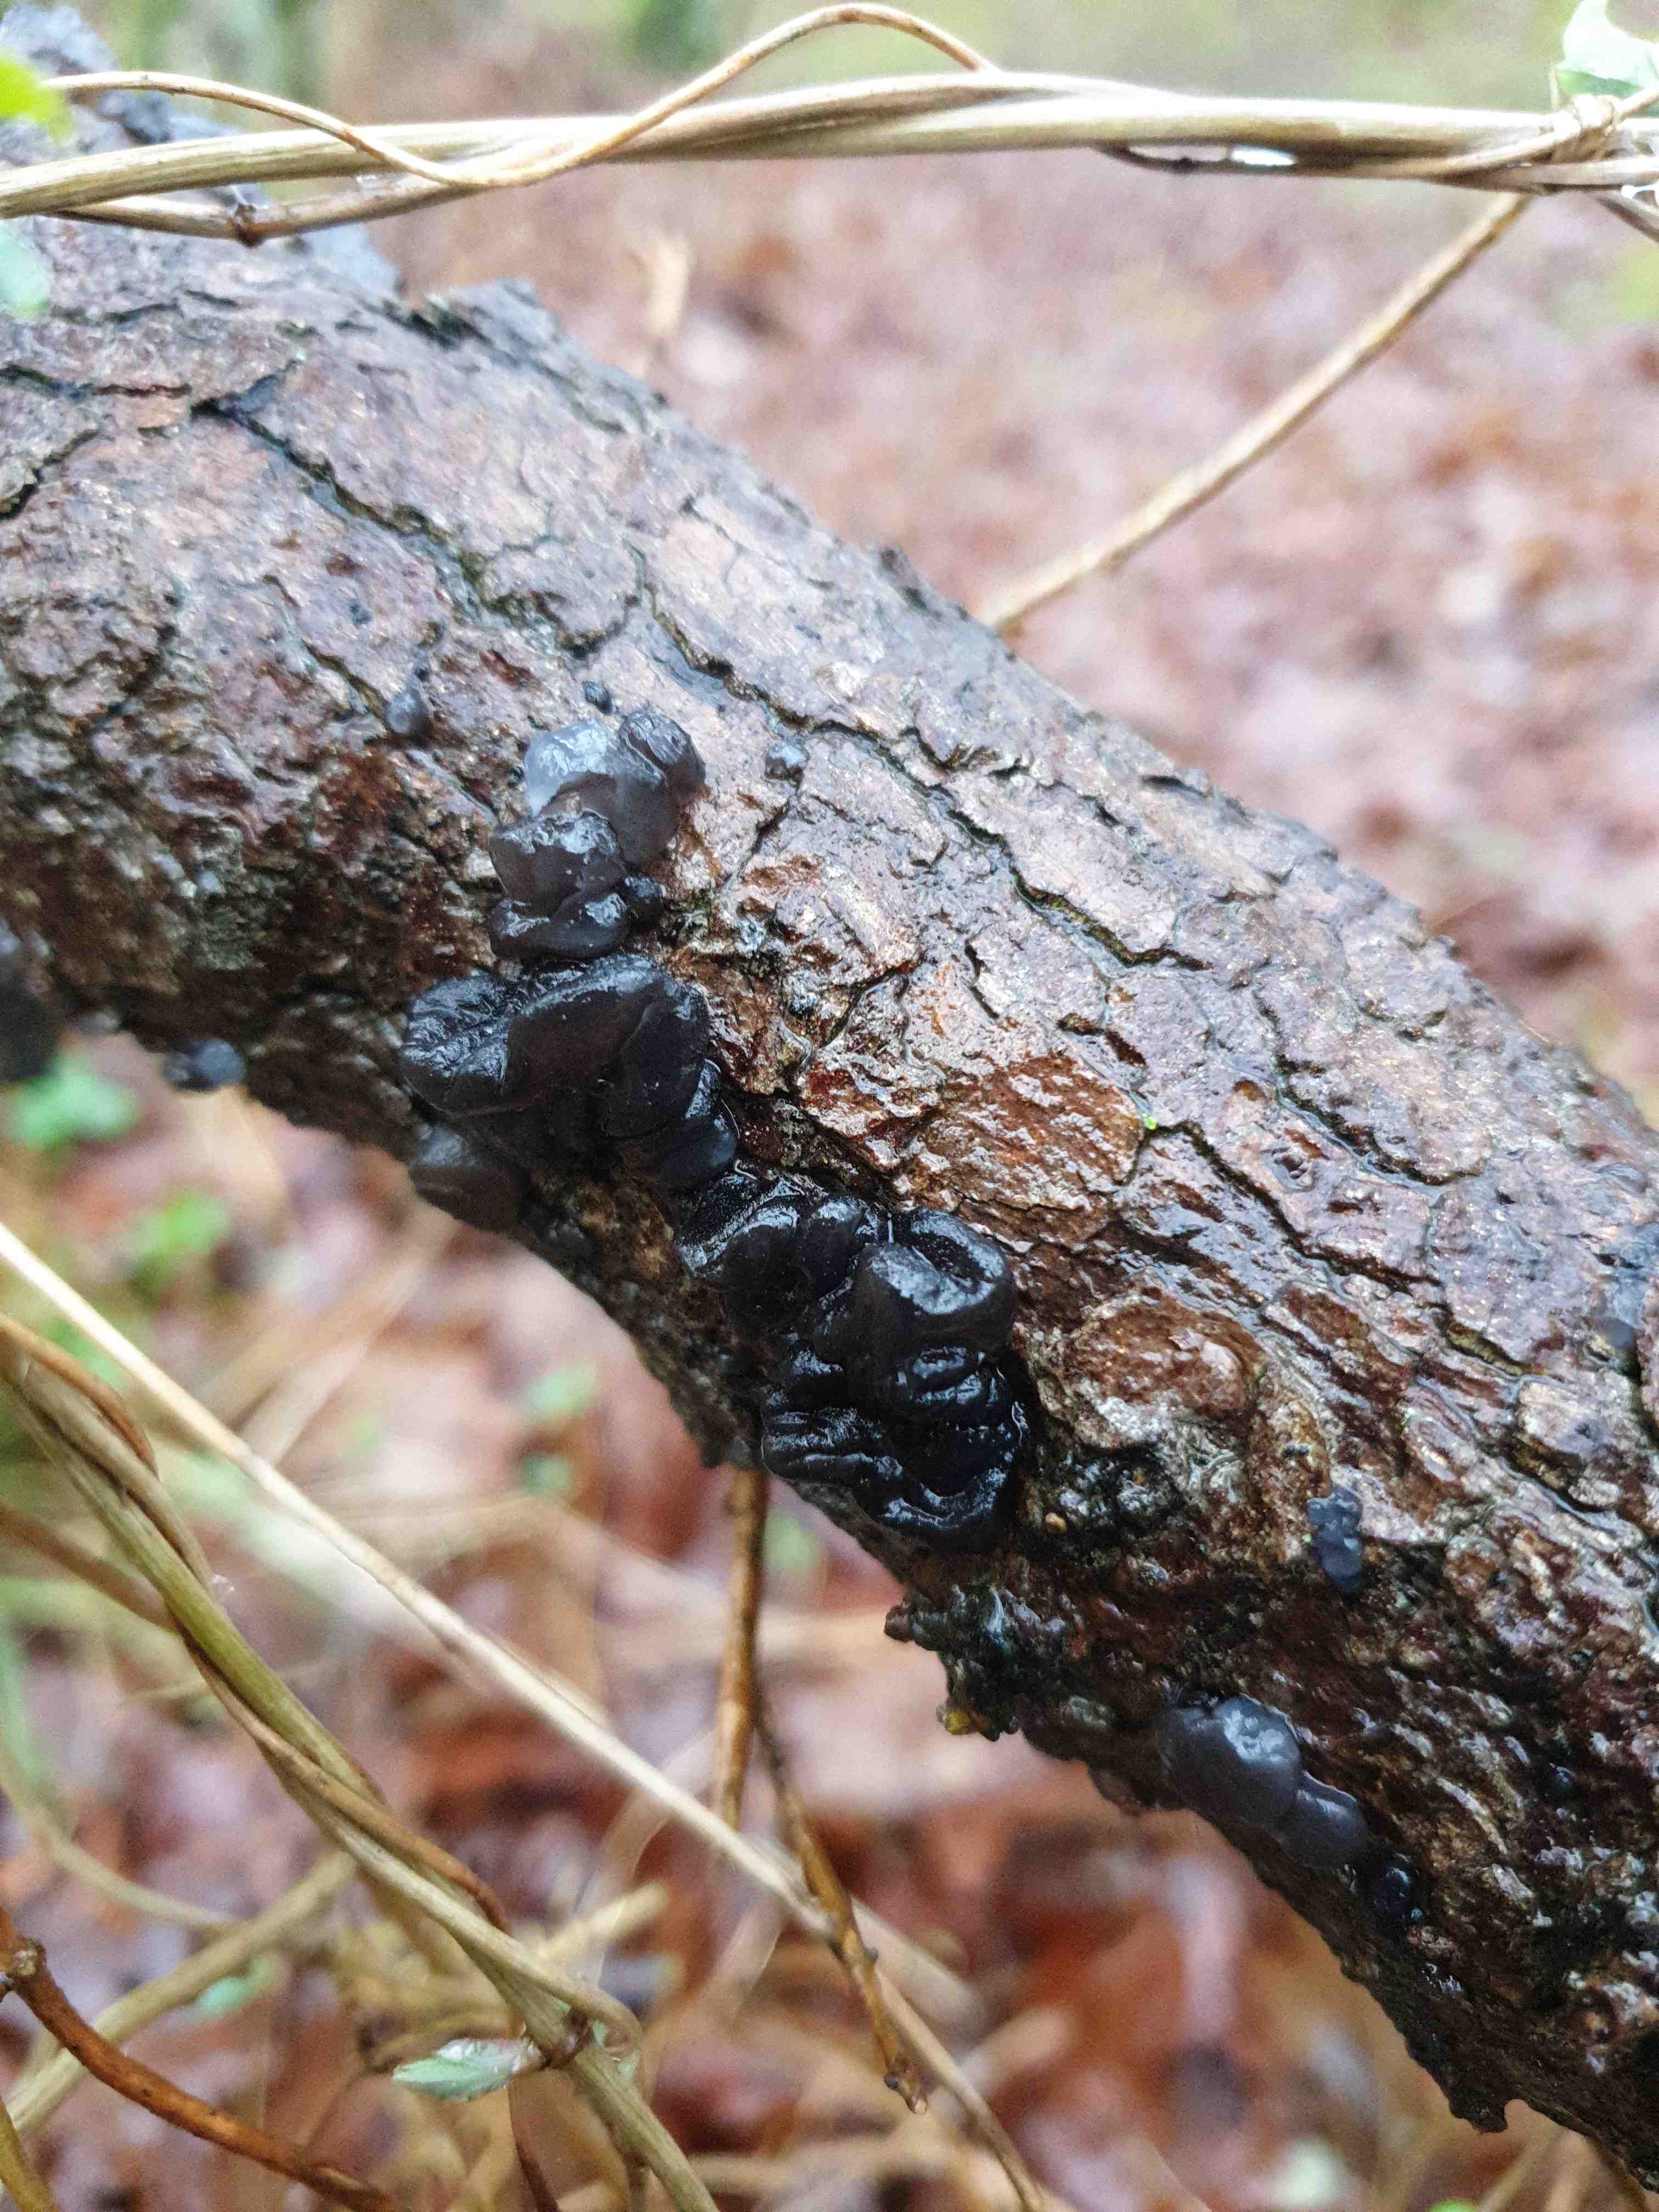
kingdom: Fungi
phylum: Basidiomycota
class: Agaricomycetes
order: Auriculariales
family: Auriculariaceae
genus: Exidia
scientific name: Exidia glandulosa
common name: ege-bævretop
